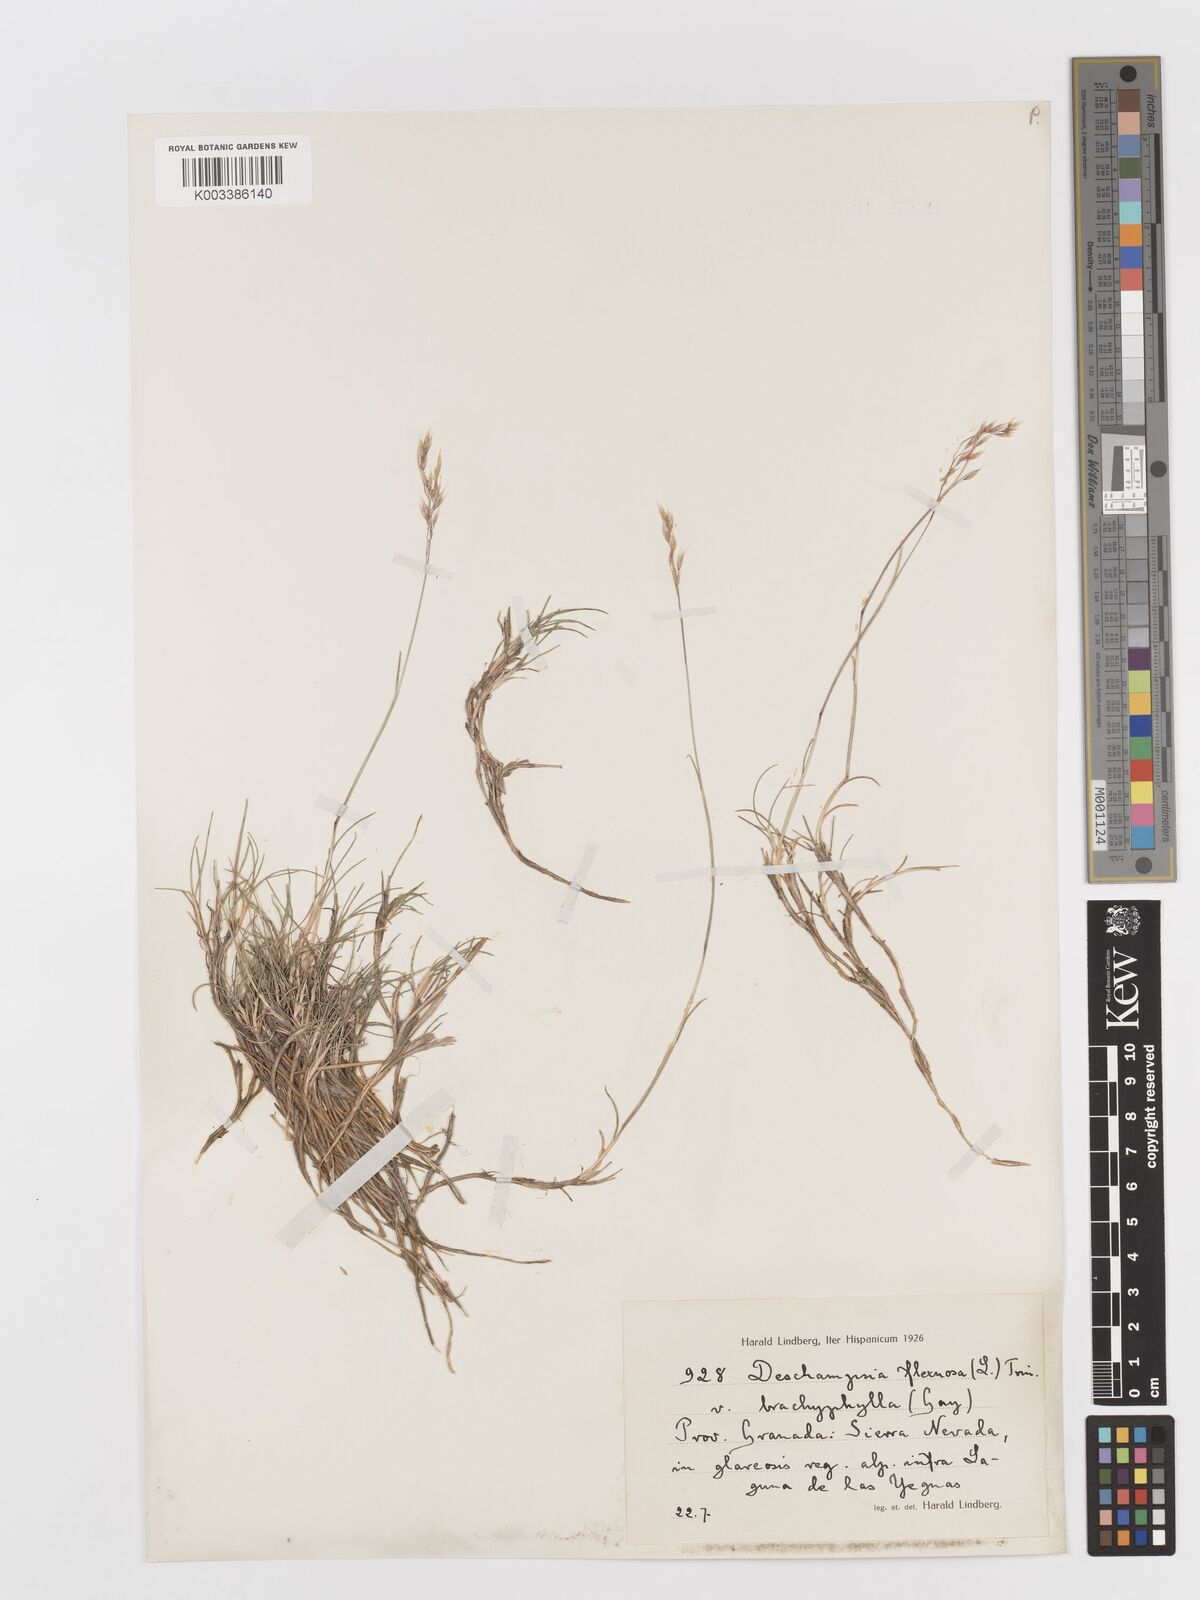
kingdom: Plantae
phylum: Tracheophyta
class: Liliopsida
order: Poales
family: Poaceae
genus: Avenella
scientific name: Avenella flexuosa
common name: Wavy hairgrass
